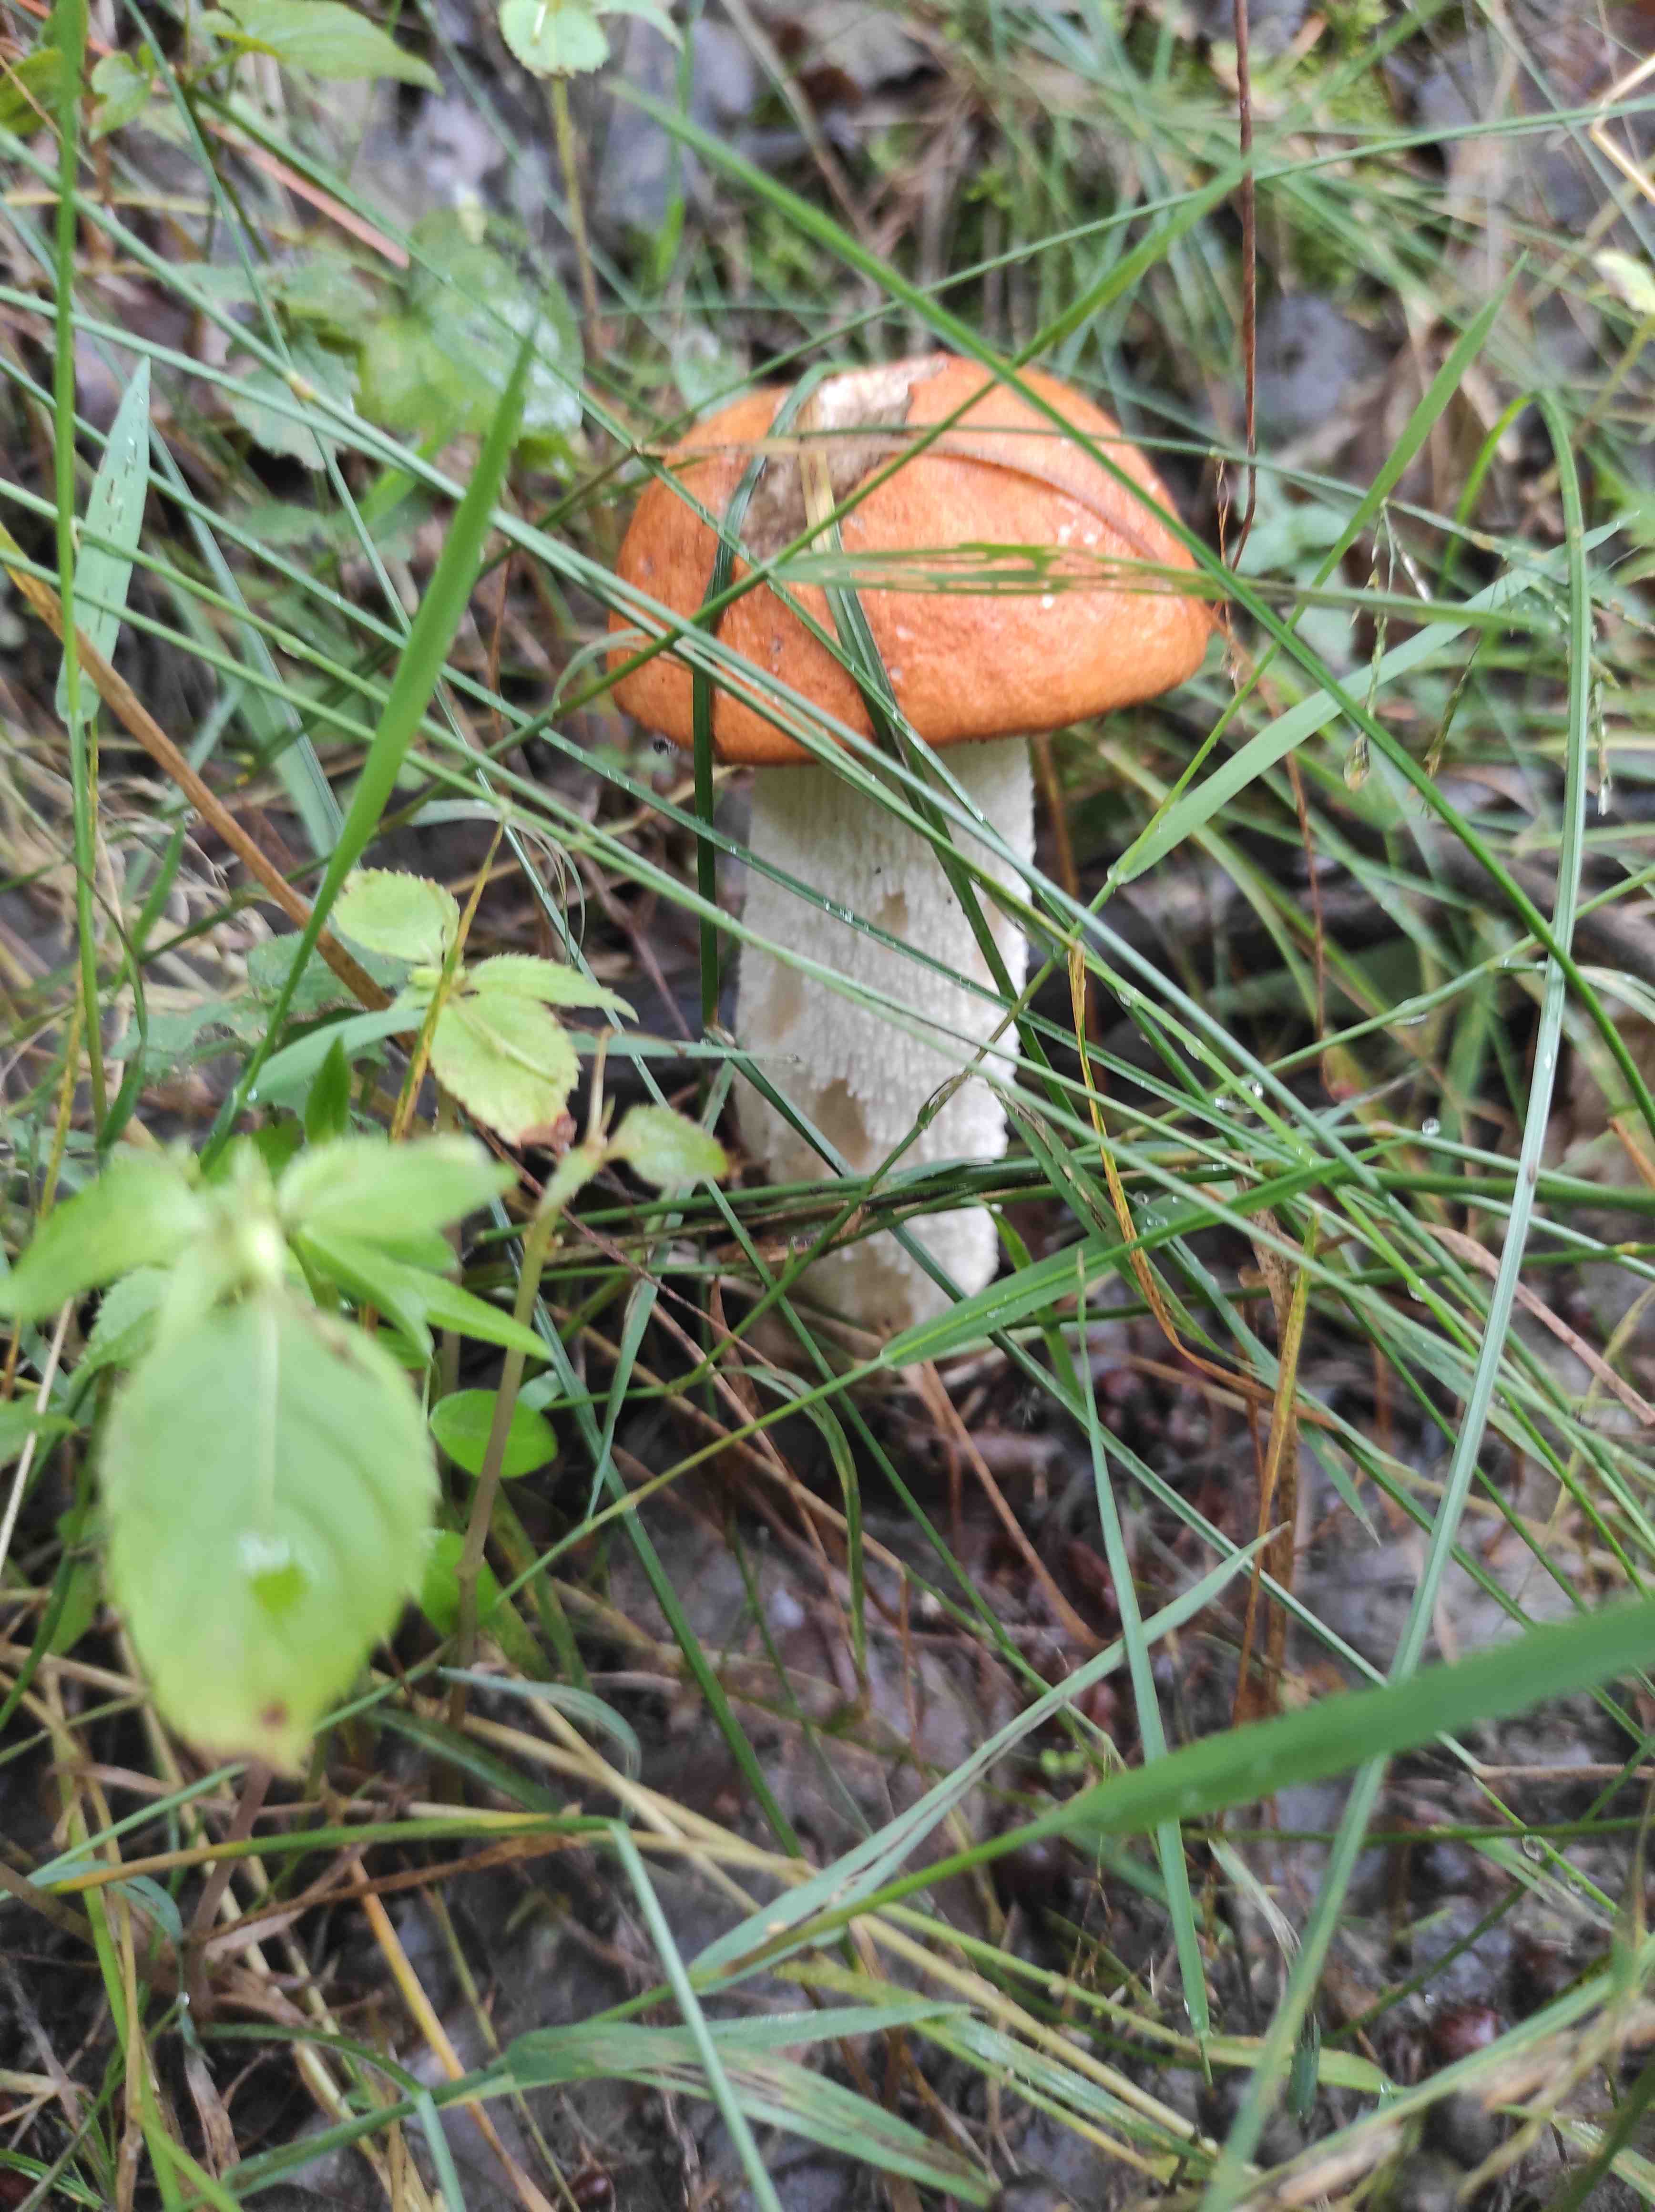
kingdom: Fungi
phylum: Basidiomycota
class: Agaricomycetes
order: Boletales
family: Boletaceae
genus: Leccinum
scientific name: Leccinum albostipitatum
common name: aspe-skælrørhat
